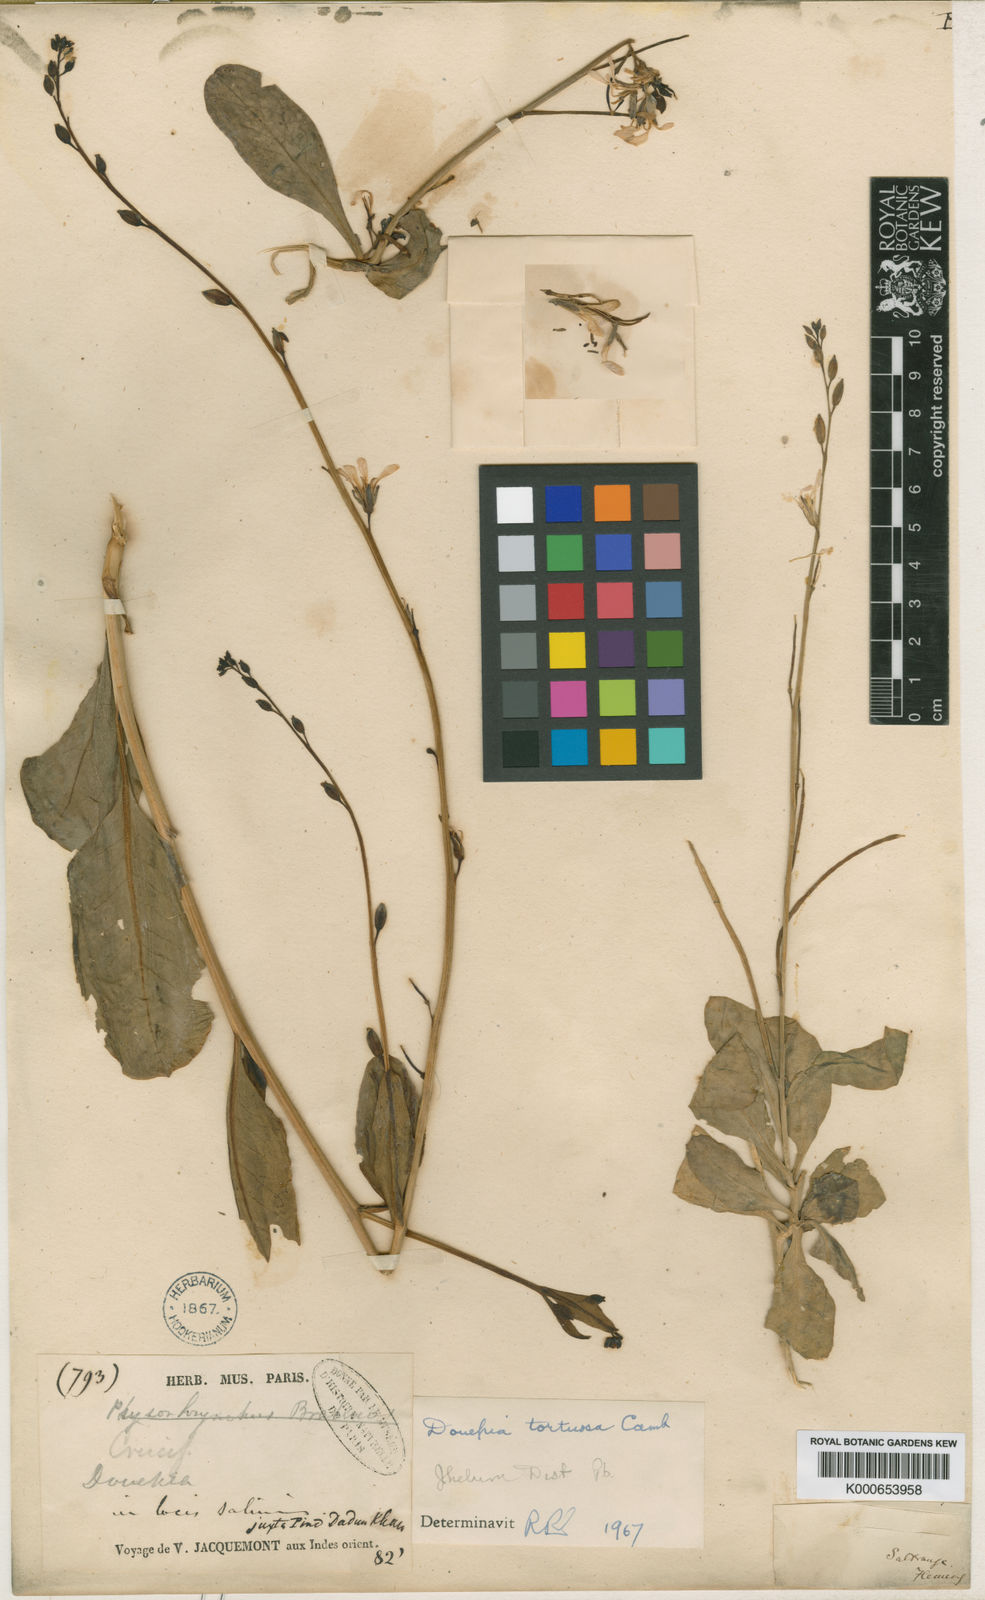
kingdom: Plantae
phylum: Tracheophyta
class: Magnoliopsida
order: Brassicales
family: Brassicaceae
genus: Douepea
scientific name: Douepea tortuosa
